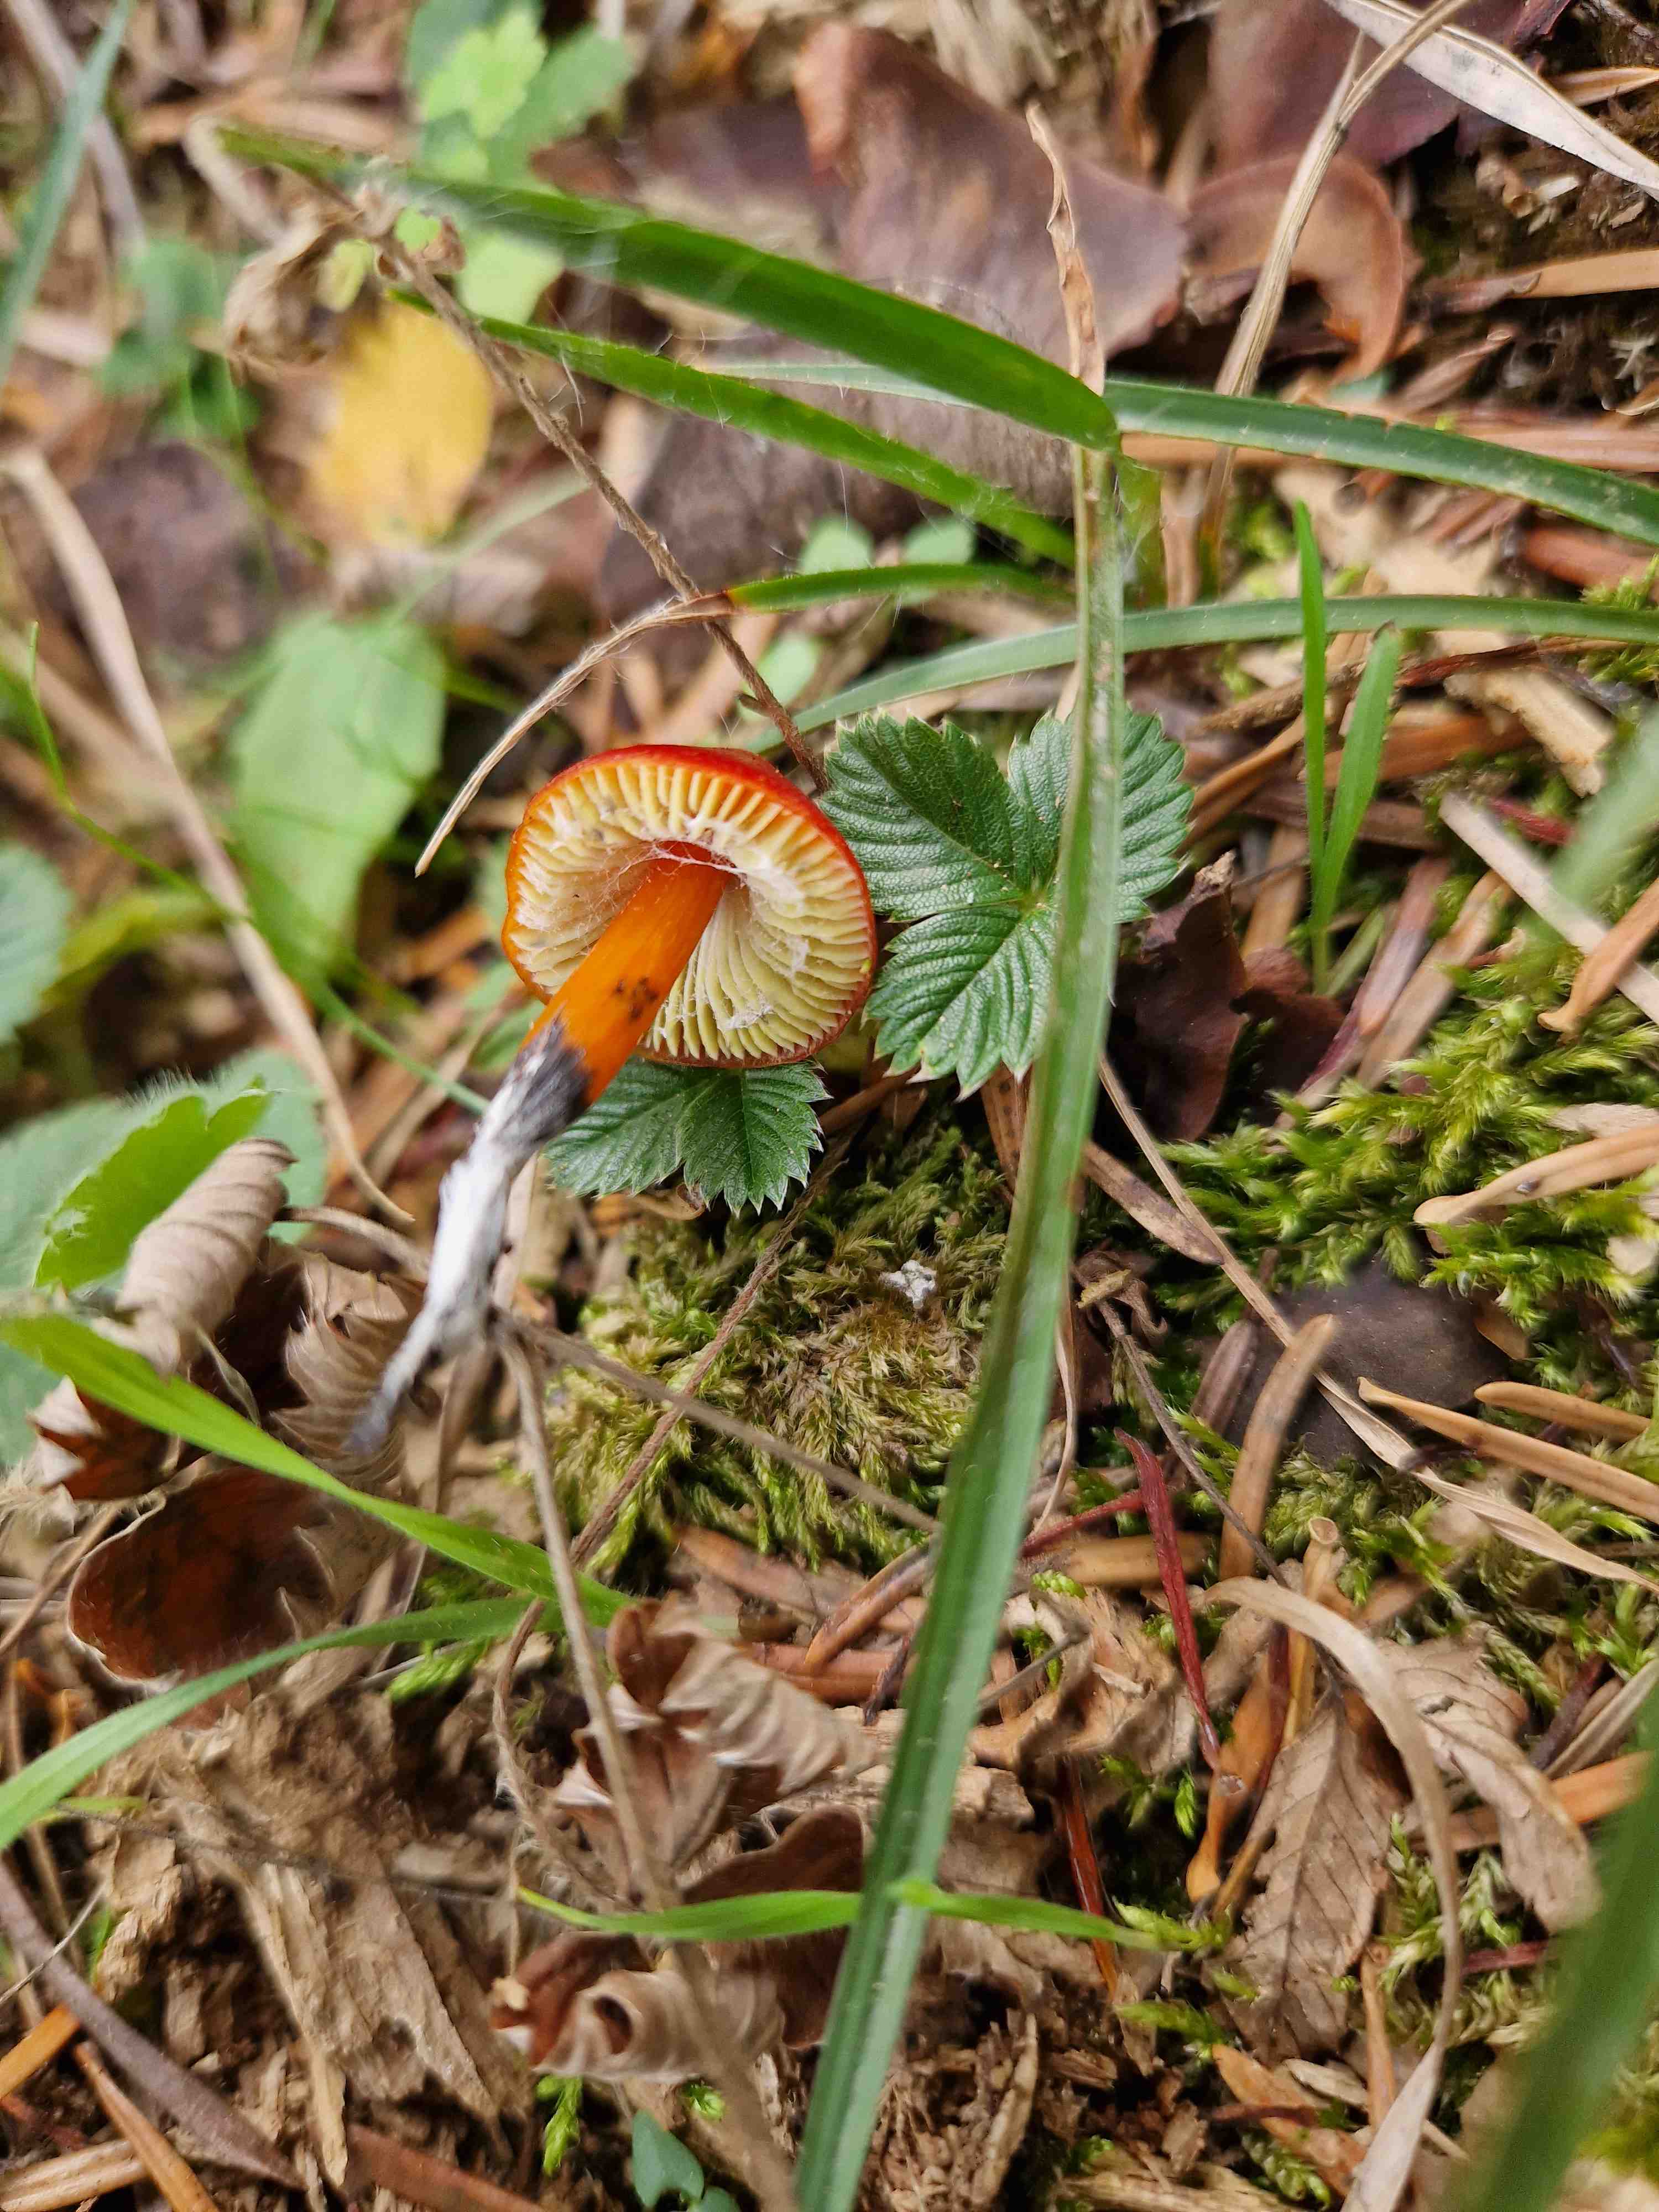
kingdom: Fungi
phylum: Basidiomycota
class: Agaricomycetes
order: Agaricales
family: Hygrophoraceae
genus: Hygrocybe
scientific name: Hygrocybe conica
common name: kegle-vokshat
